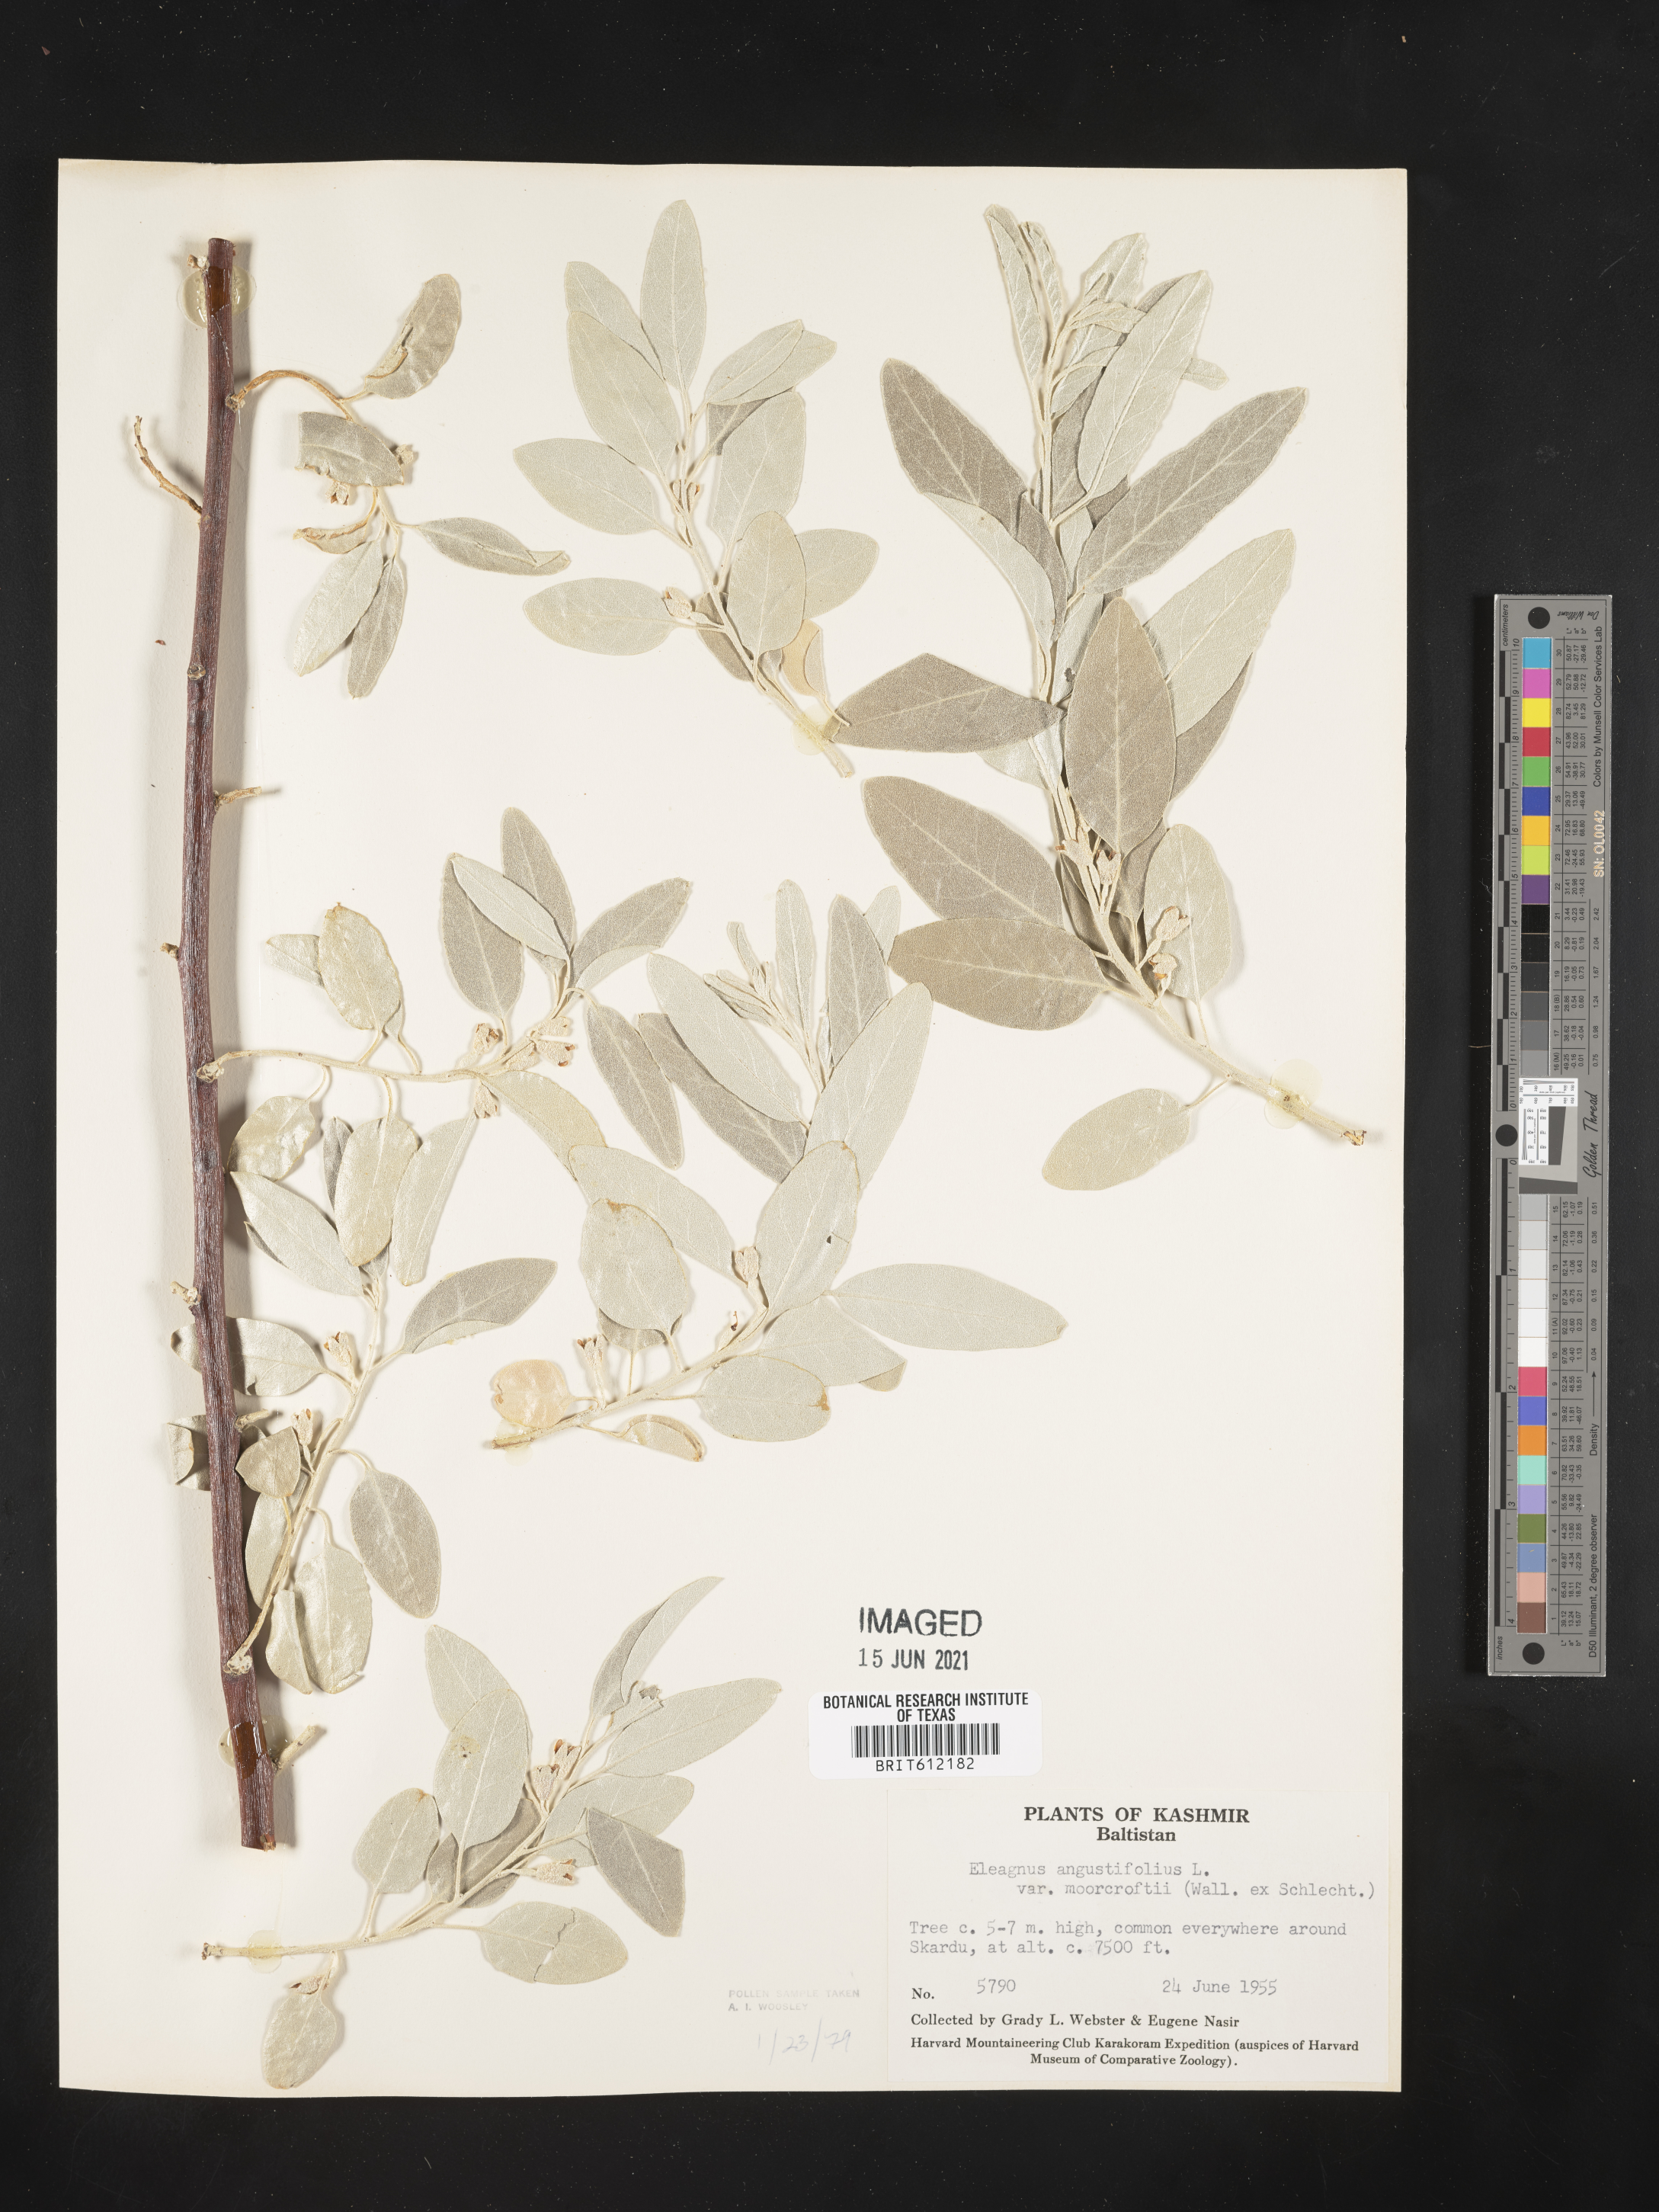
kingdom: Plantae
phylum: Tracheophyta
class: Magnoliopsida
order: Rosales
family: Elaeagnaceae
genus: Elaeagnus
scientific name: Elaeagnus angustifolia
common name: Russian olive
